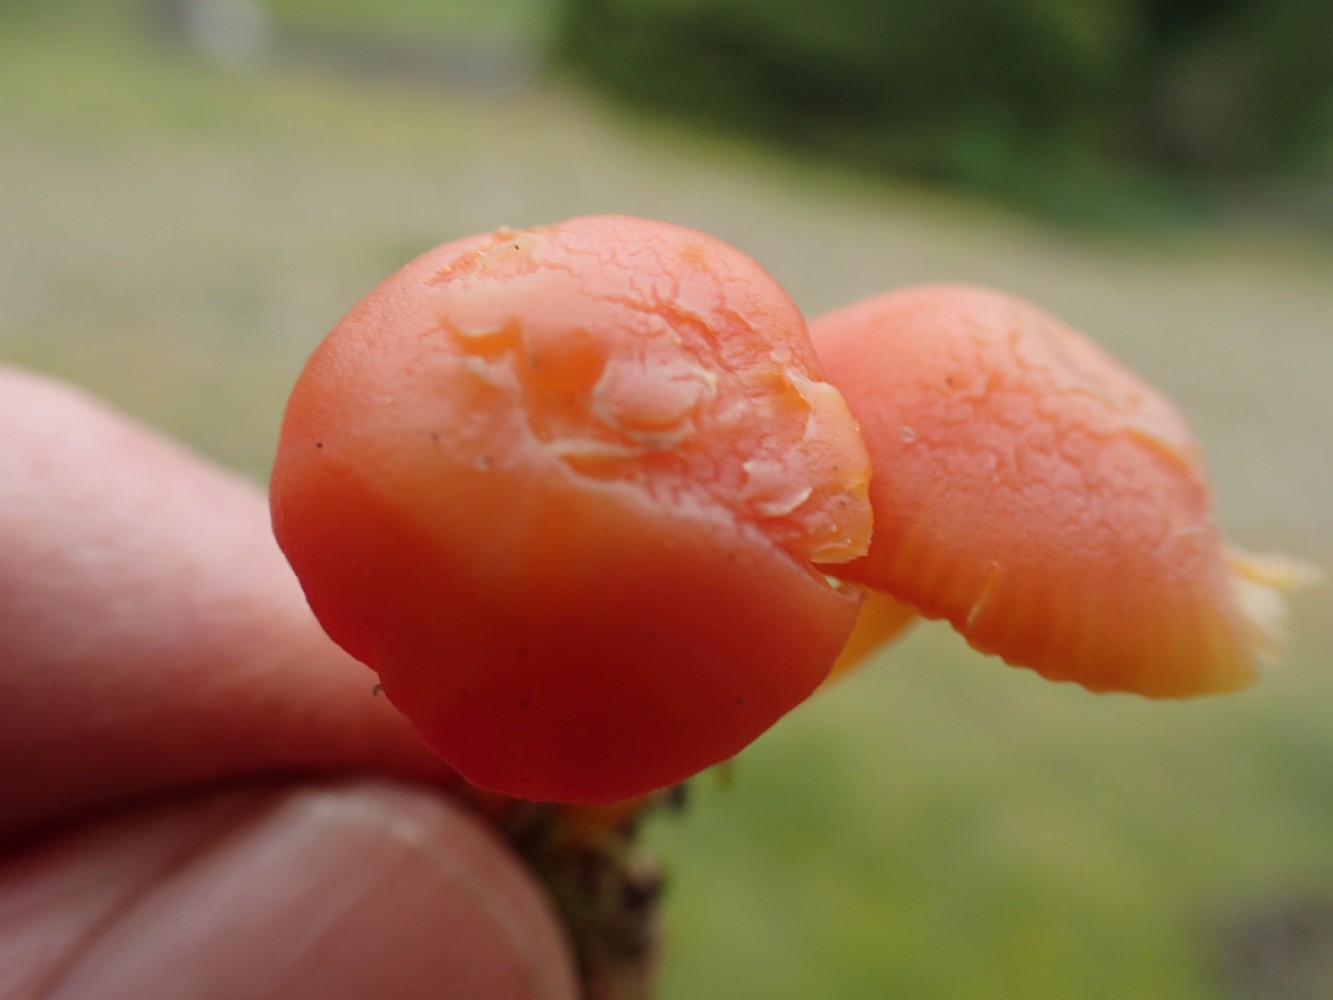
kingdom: Fungi
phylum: Basidiomycota
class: Agaricomycetes
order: Agaricales
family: Hygrophoraceae
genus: Hygrocybe
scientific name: Hygrocybe reidii
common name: honning-vokshat
